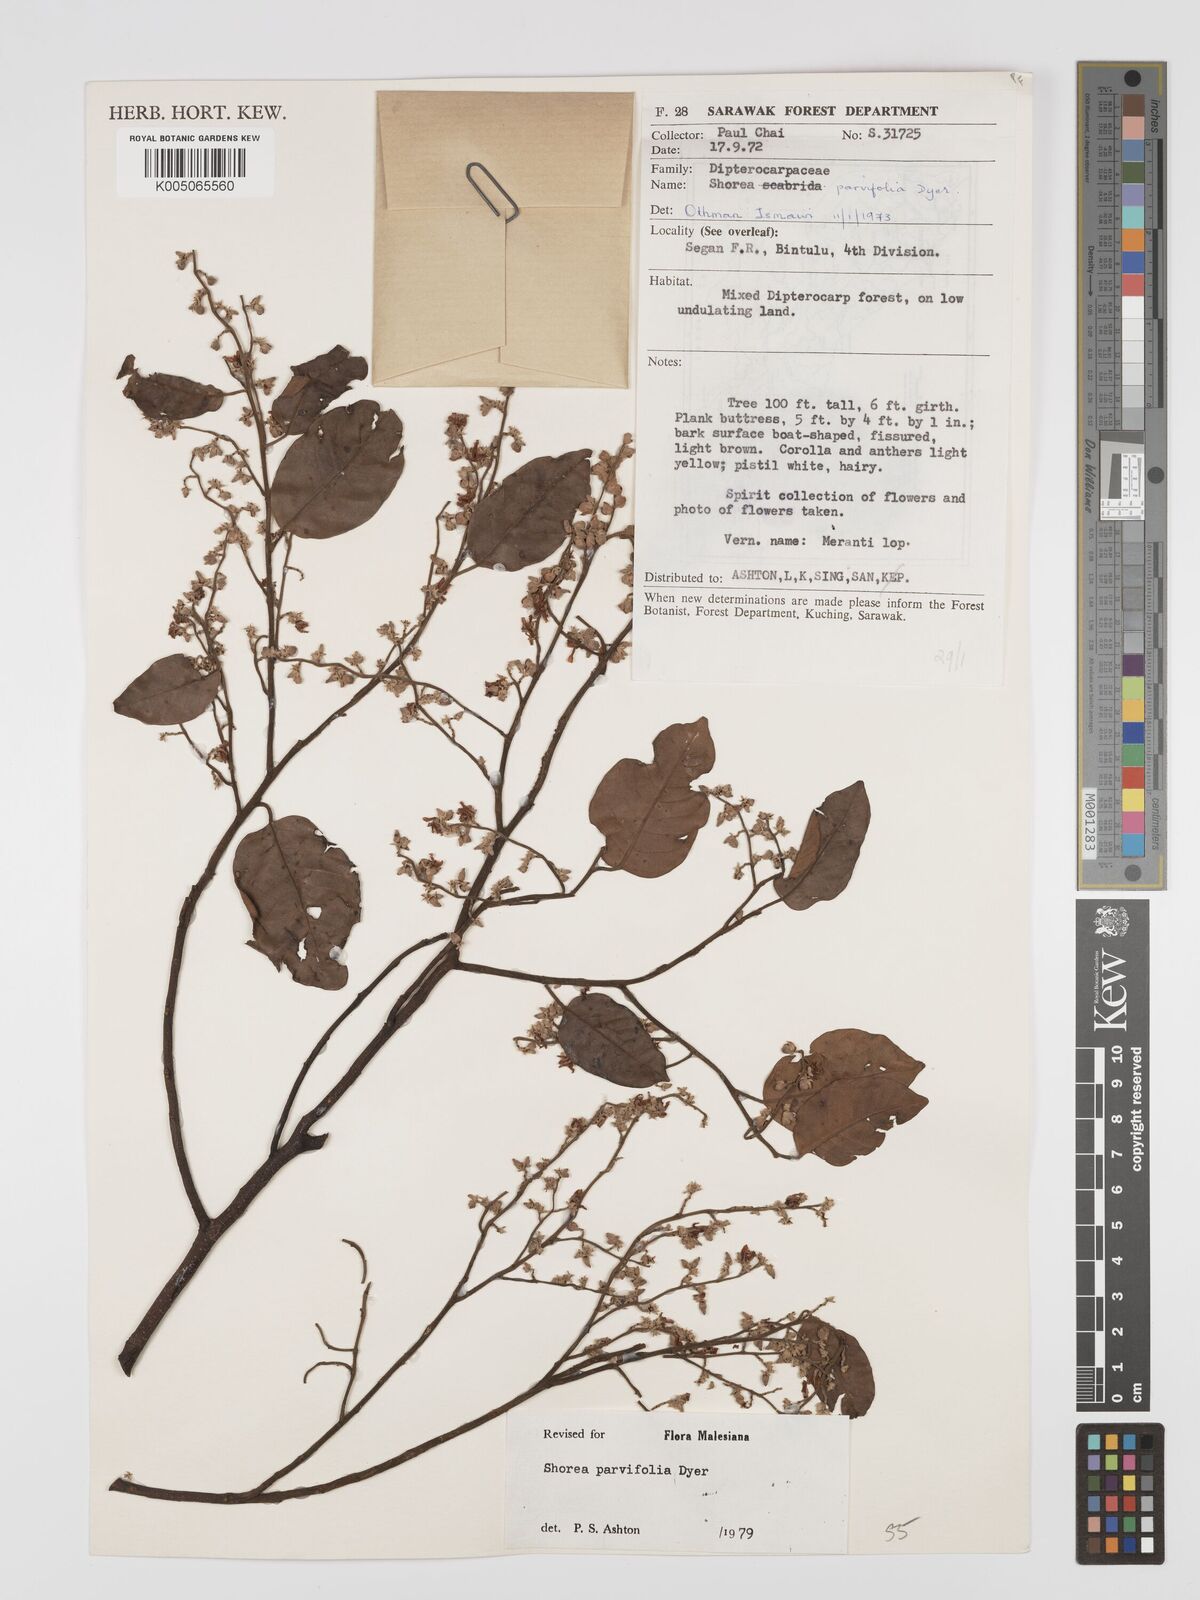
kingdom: Plantae
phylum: Tracheophyta
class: Magnoliopsida
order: Malvales
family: Dipterocarpaceae
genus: Shorea
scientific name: Shorea parvifolia
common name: Light red meranti
